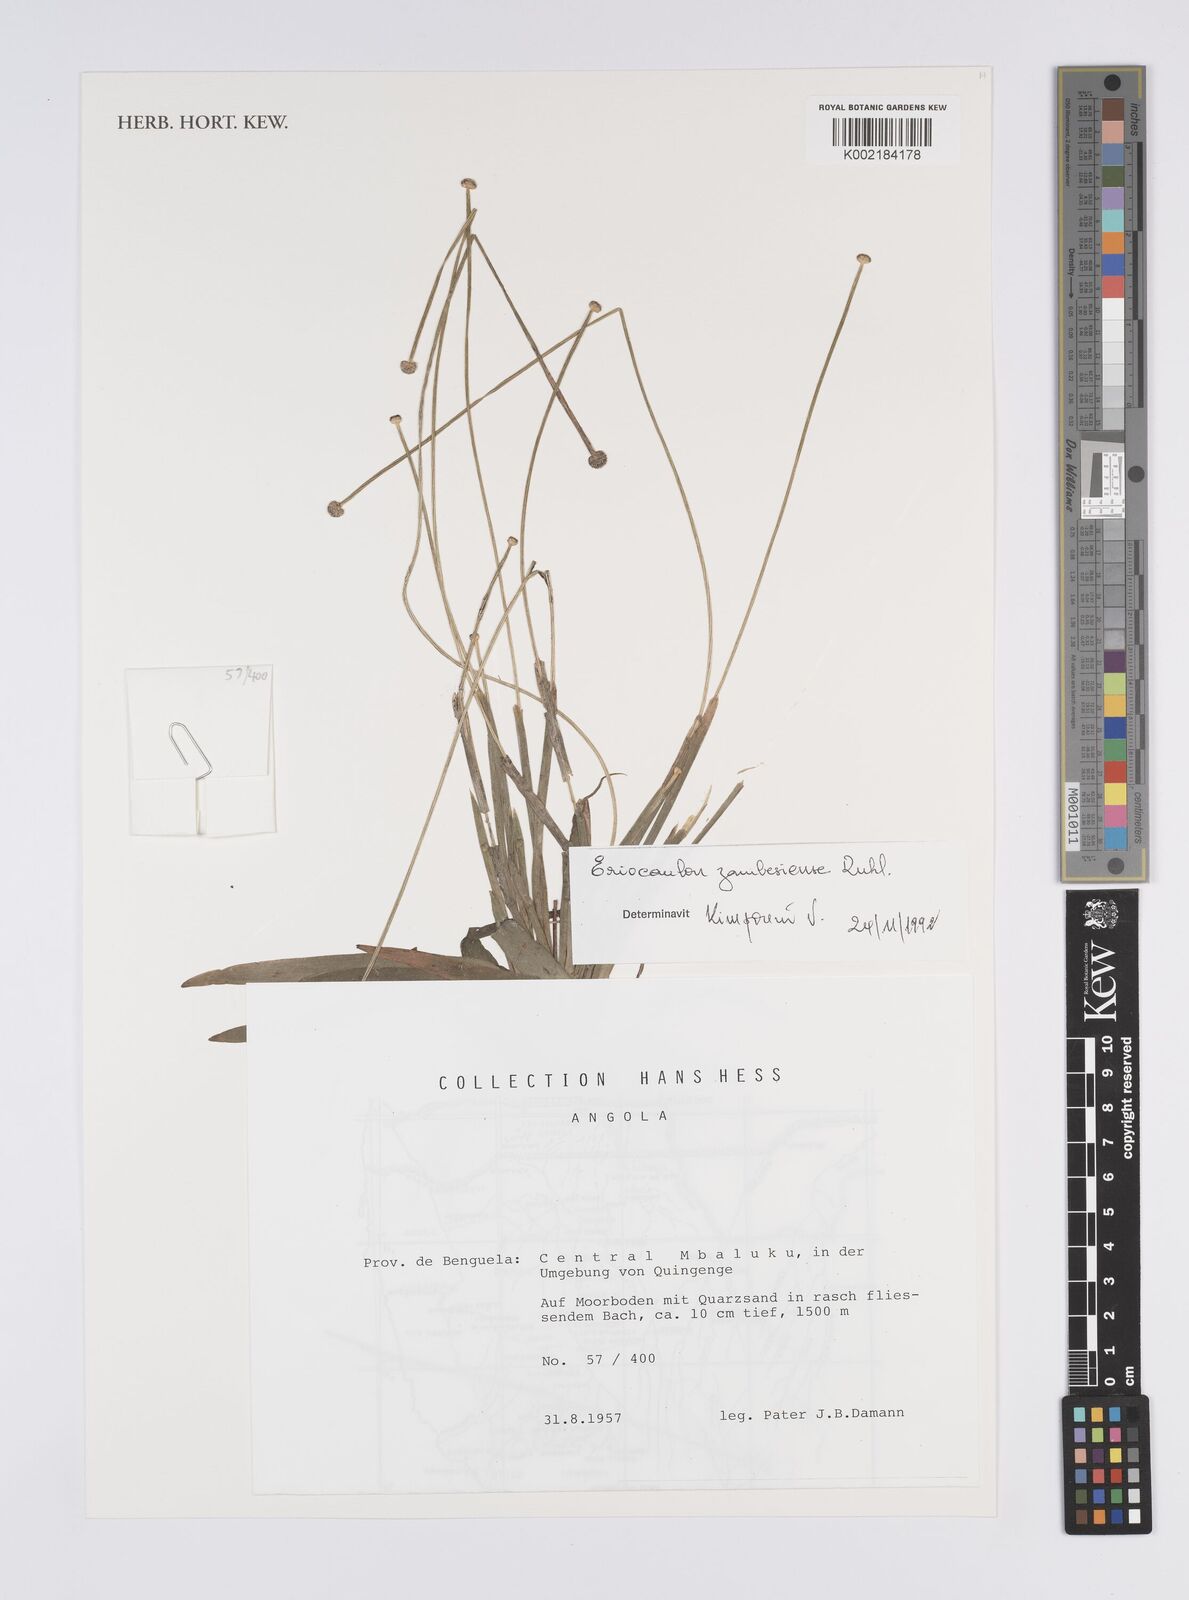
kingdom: Plantae
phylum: Tracheophyta
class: Liliopsida
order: Poales
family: Eriocaulaceae
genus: Eriocaulon
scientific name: Eriocaulon zambesiense
